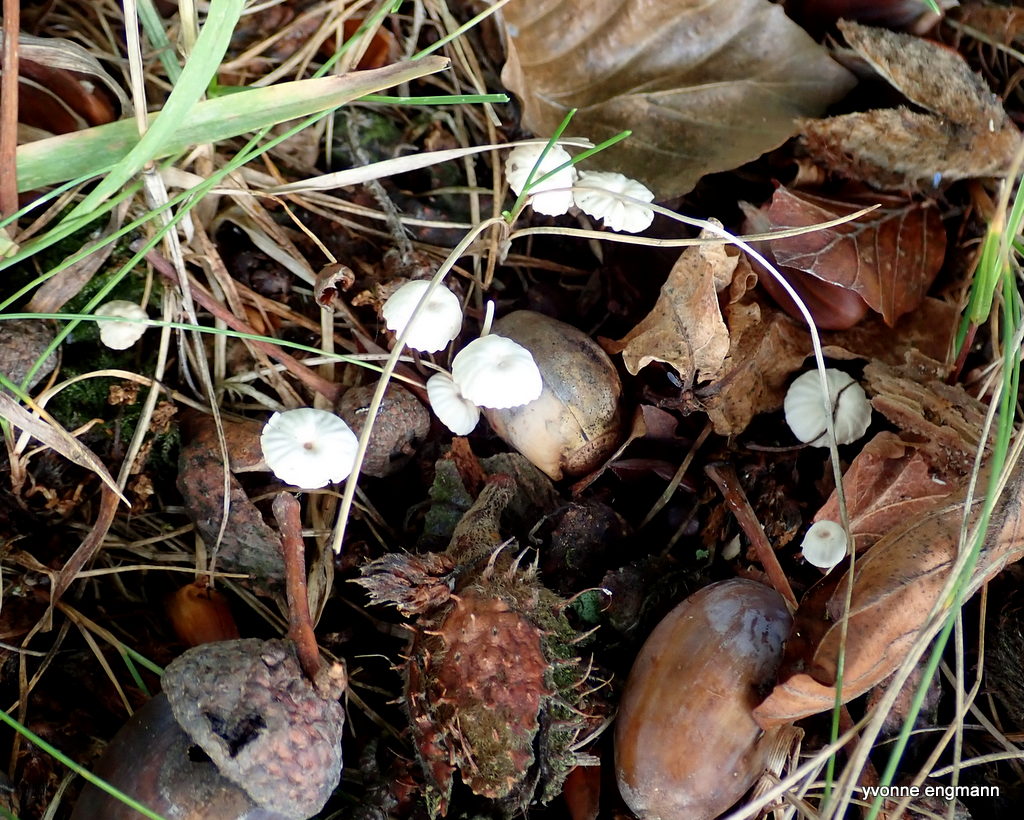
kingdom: Fungi
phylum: Basidiomycota
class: Agaricomycetes
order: Agaricales
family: Marasmiaceae
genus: Marasmius
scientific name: Marasmius rotula
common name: hjul-bruskhat
